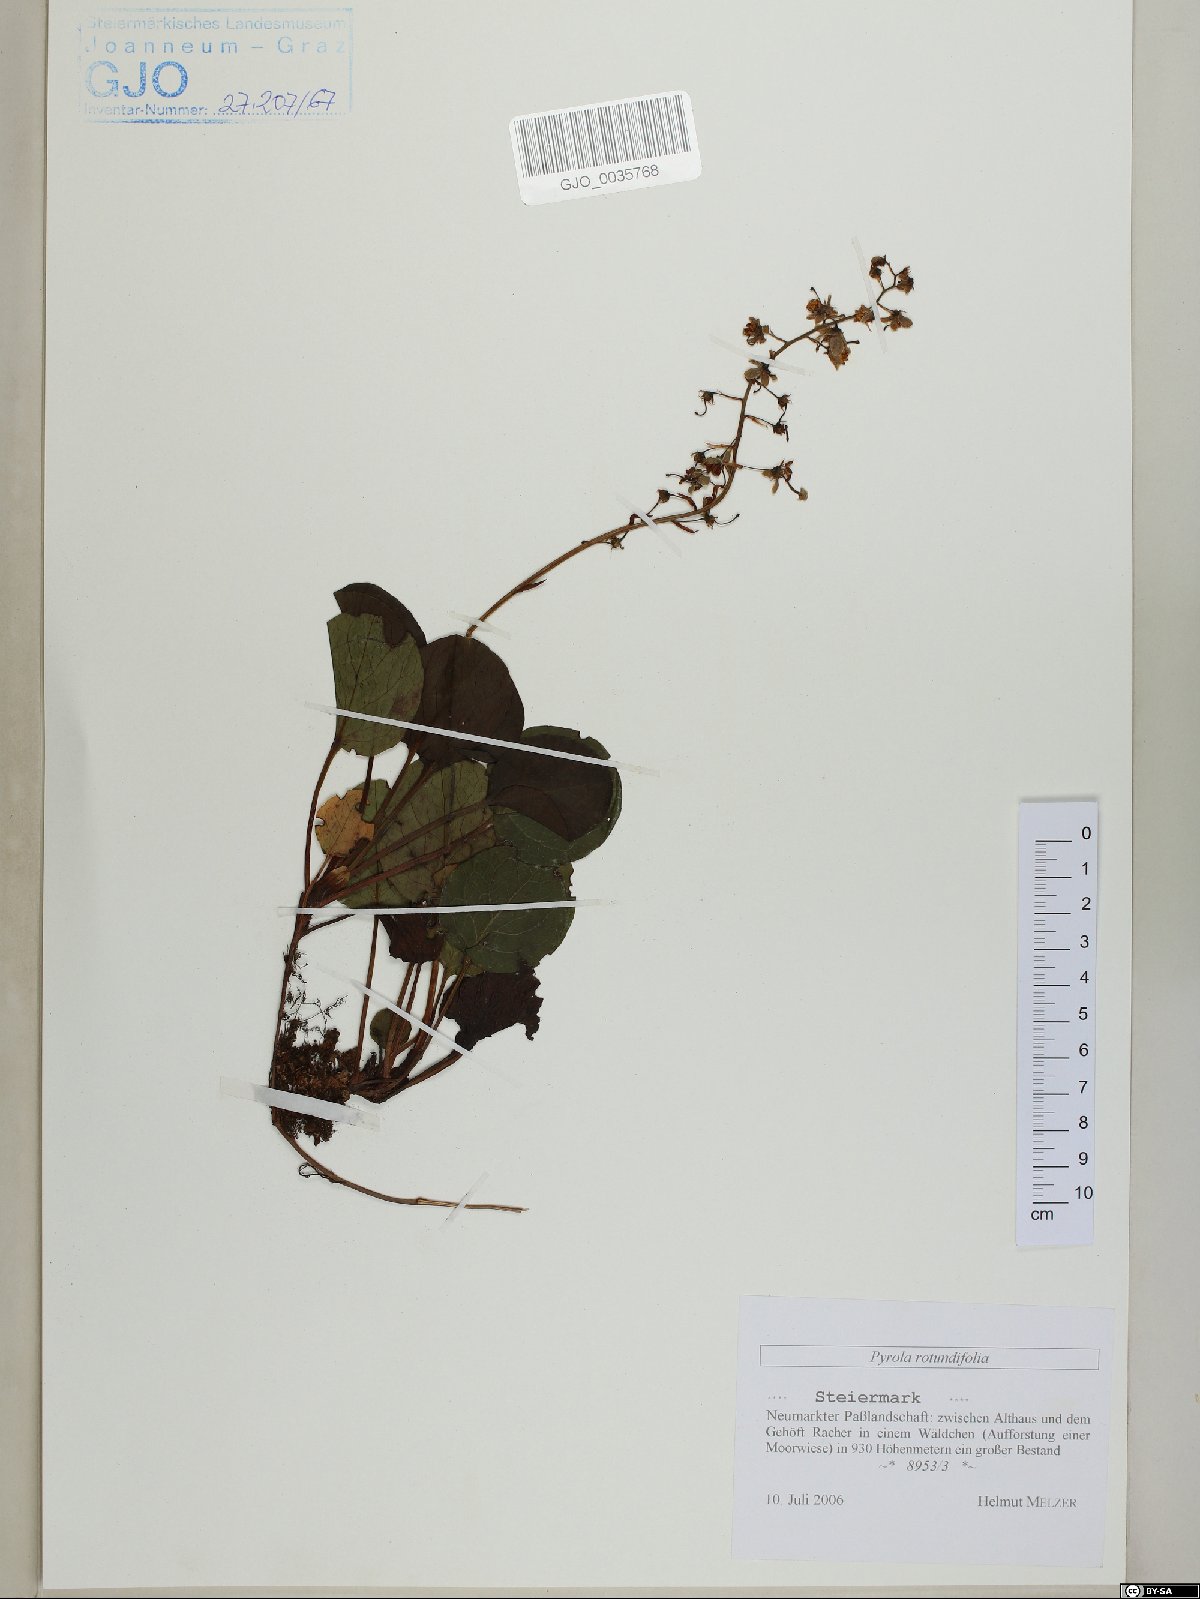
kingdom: Plantae
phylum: Tracheophyta
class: Magnoliopsida
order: Ericales
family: Ericaceae
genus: Pyrola
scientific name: Pyrola rotundifolia
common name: Round-leaved wintergreen
